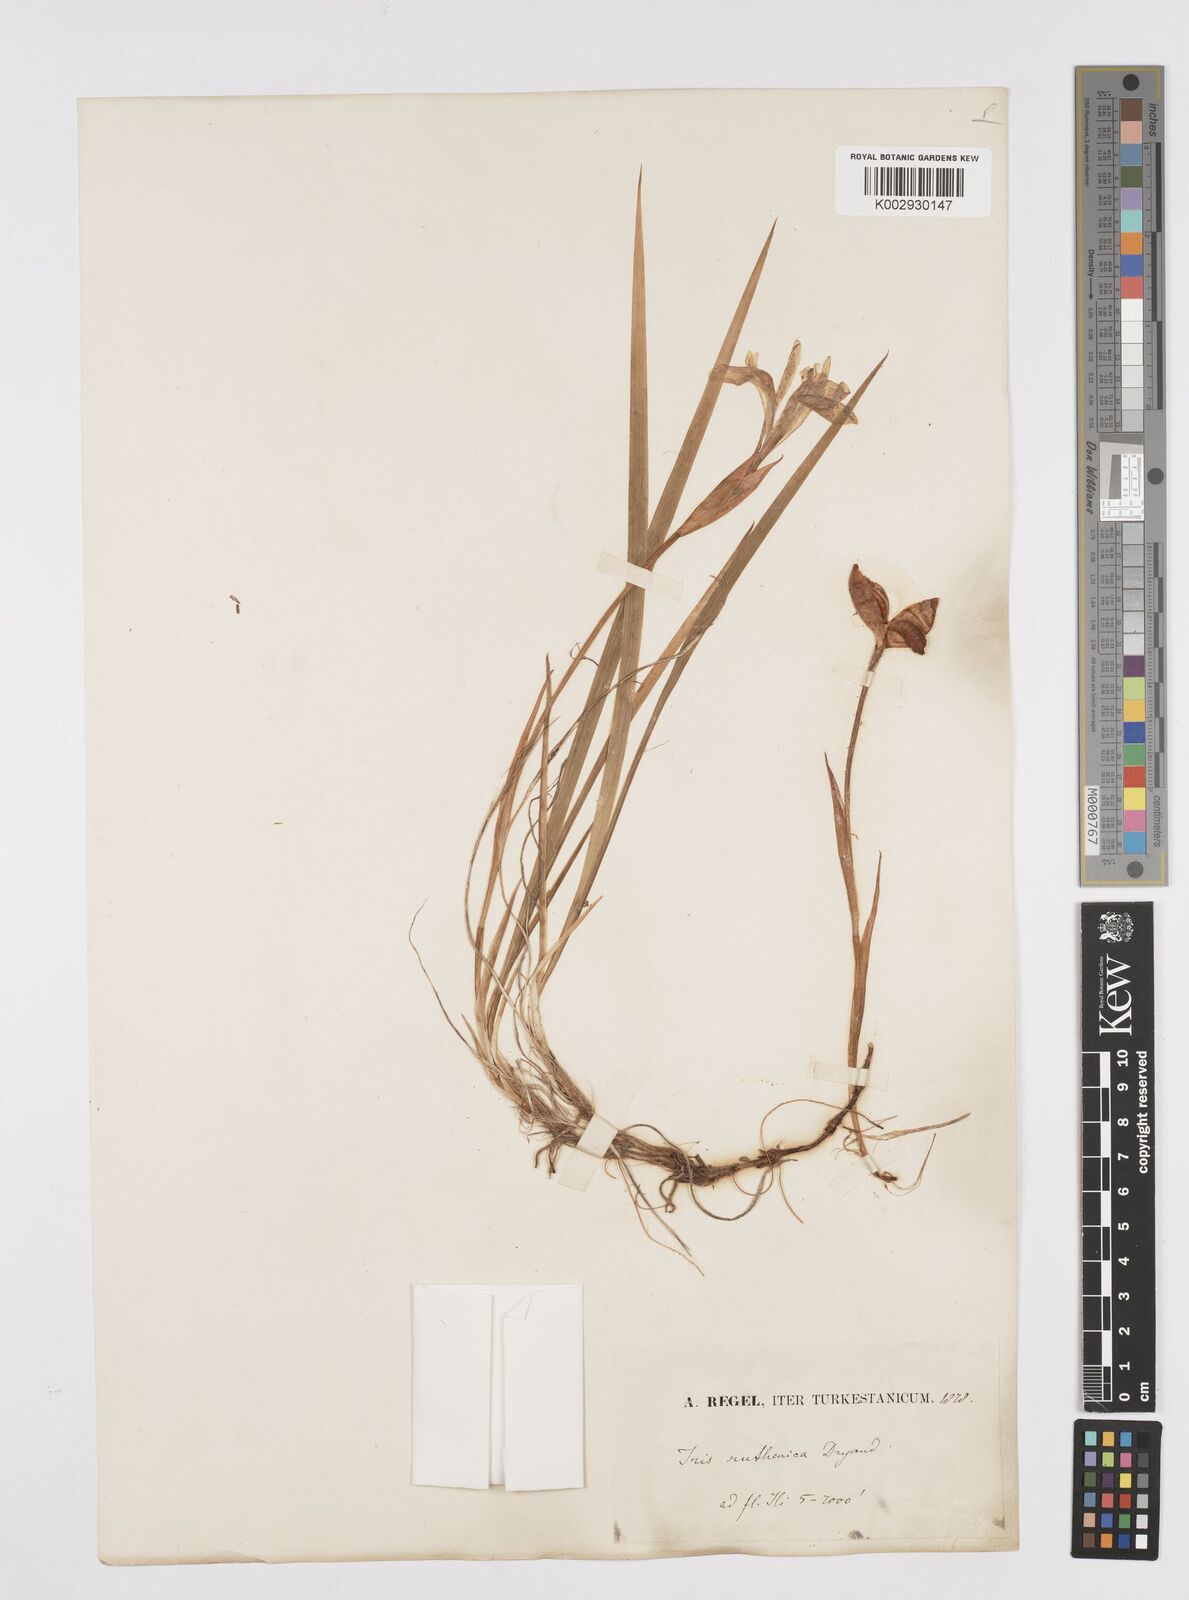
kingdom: Plantae
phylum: Tracheophyta
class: Liliopsida
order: Asparagales
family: Iridaceae
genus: Iris
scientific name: Iris ruthenica
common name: Purple-bract iris
